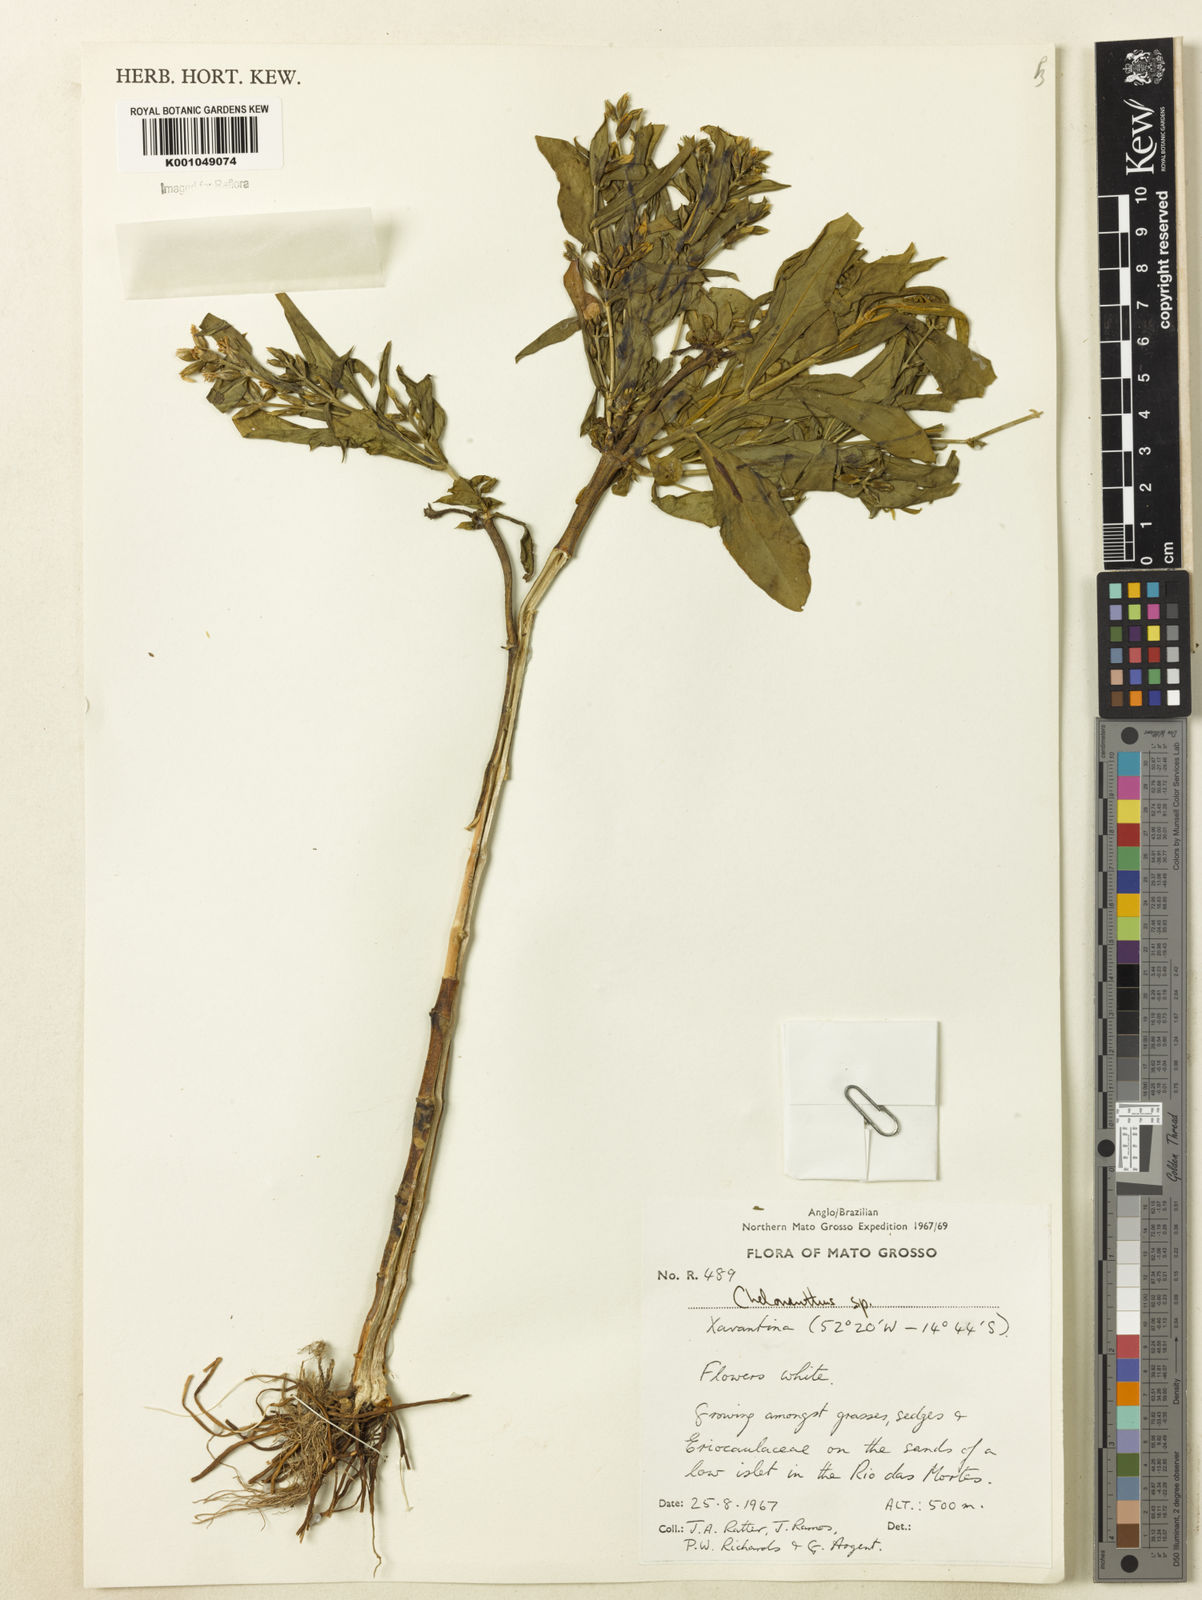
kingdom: Plantae
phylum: Tracheophyta
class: Magnoliopsida
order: Gentianales
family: Gentianaceae
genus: Chelonanthus
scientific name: Chelonanthus
